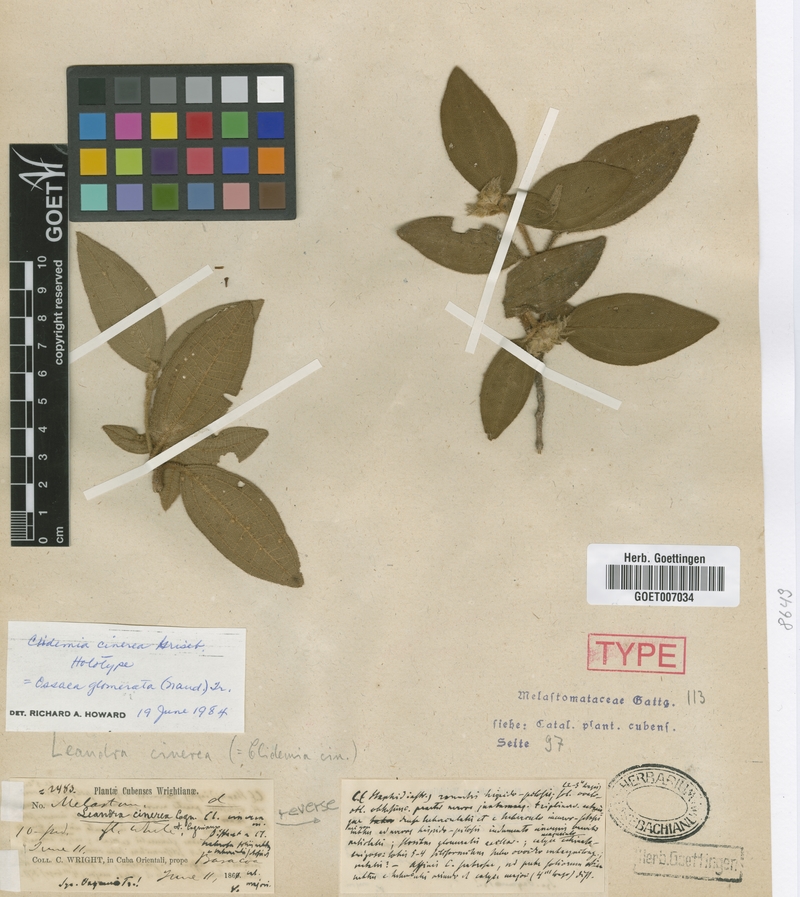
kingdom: Plantae
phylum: Tracheophyta
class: Magnoliopsida
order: Myrtales
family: Melastomataceae
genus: Miconia
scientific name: Miconia glomeruliflora
